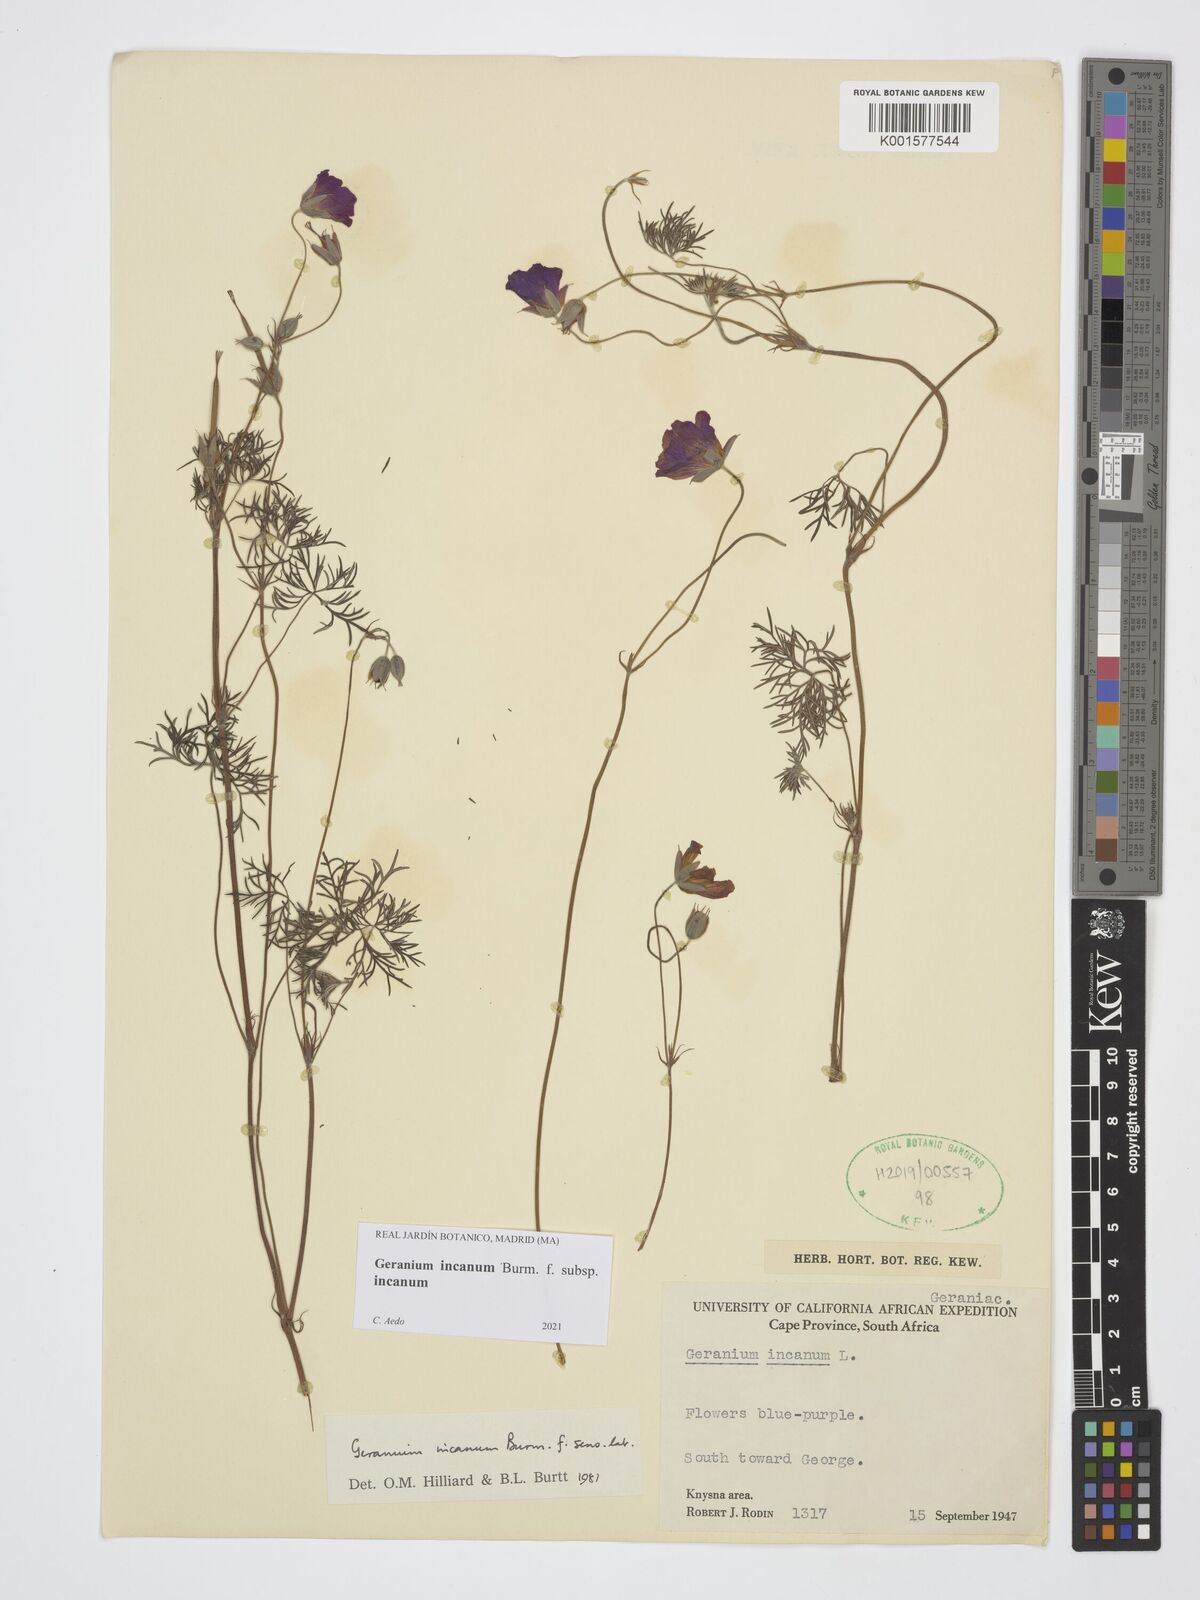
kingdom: Plantae
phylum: Tracheophyta
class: Magnoliopsida
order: Geraniales
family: Geraniaceae
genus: Geranium
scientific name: Geranium incanum
